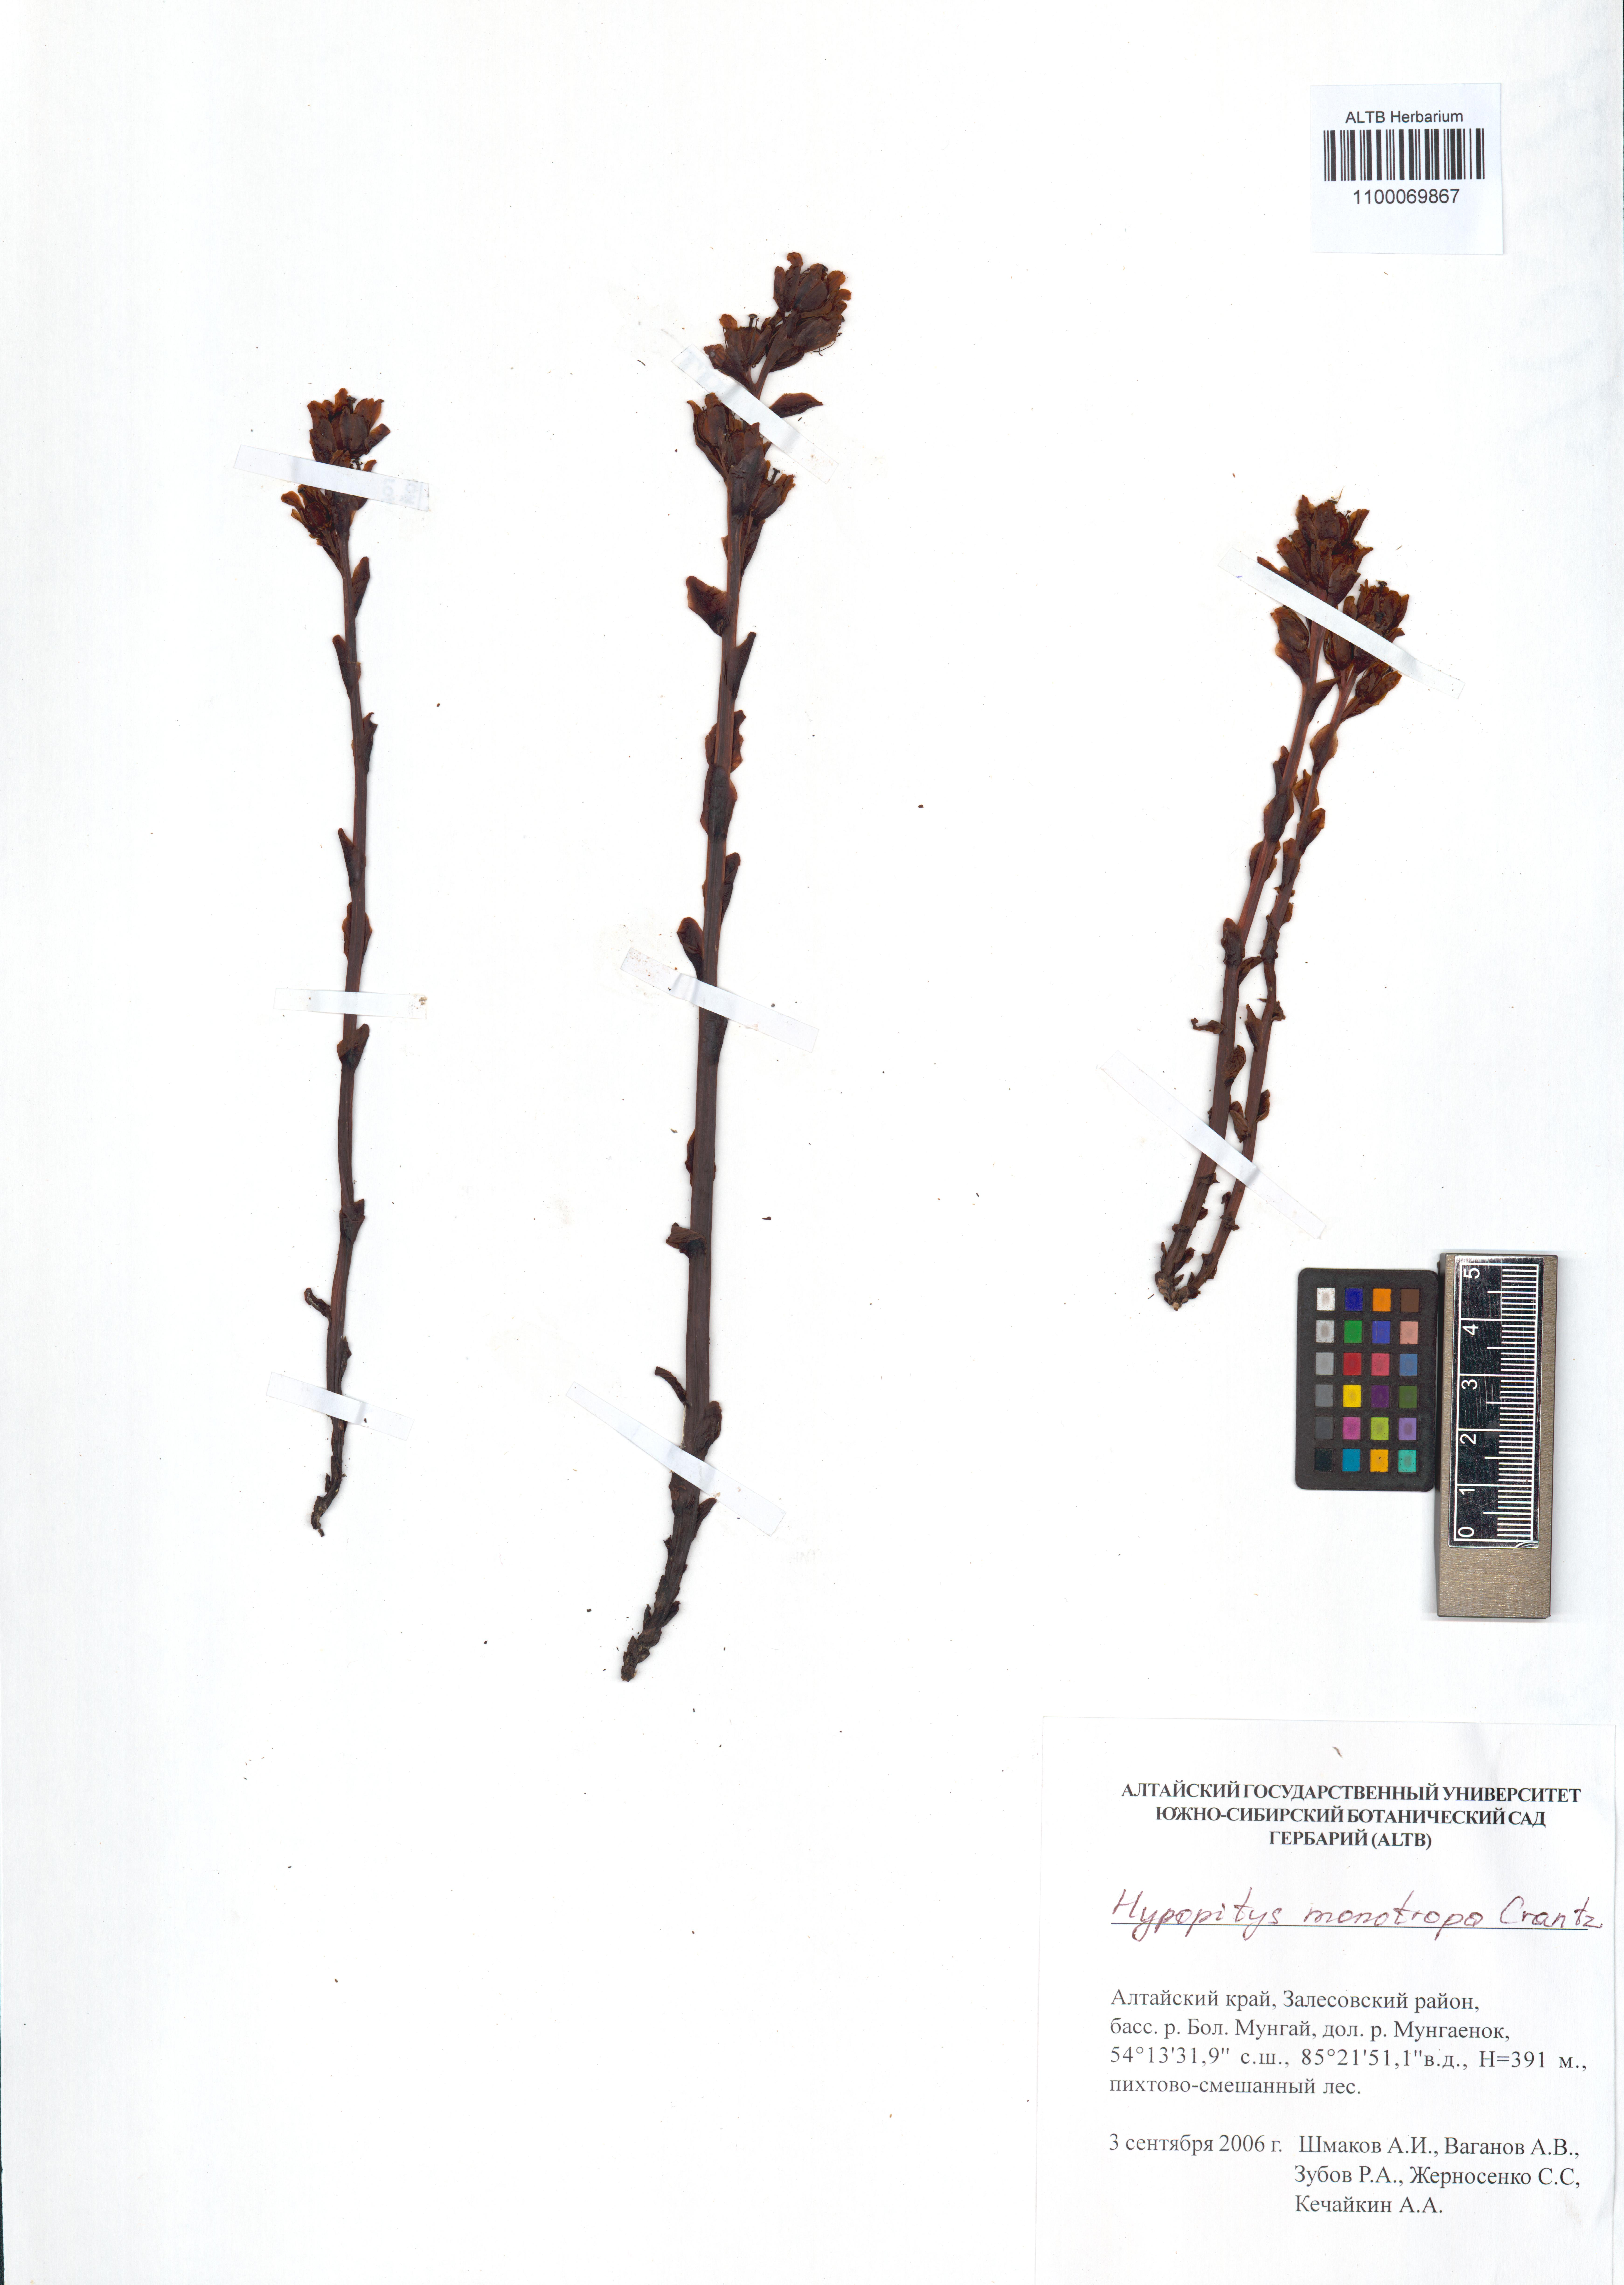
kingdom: Plantae
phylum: Tracheophyta
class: Magnoliopsida
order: Ericales
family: Ericaceae
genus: Hypopitys
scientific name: Hypopitys monotropa
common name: Yellow bird's-nest
